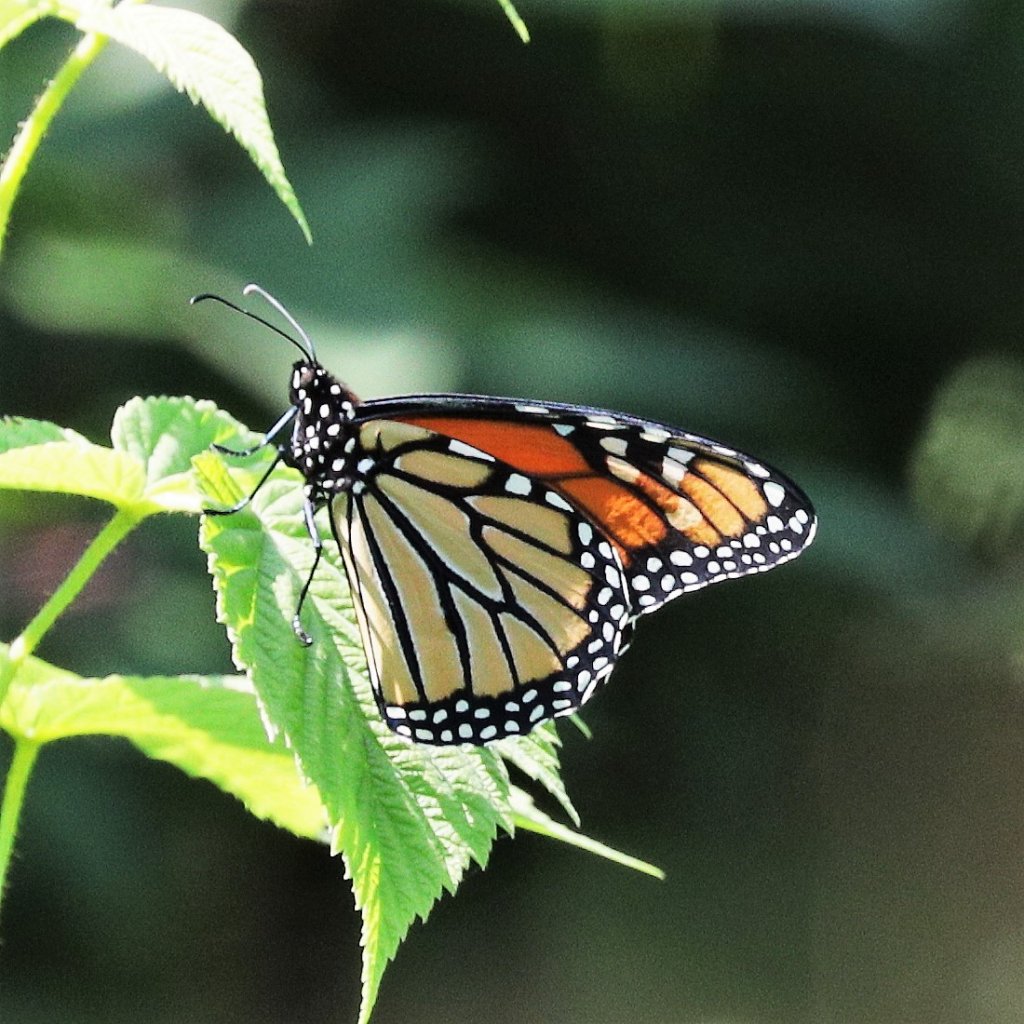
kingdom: Animalia
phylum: Arthropoda
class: Insecta
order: Lepidoptera
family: Nymphalidae
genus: Danaus
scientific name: Danaus plexippus
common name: Monarch
